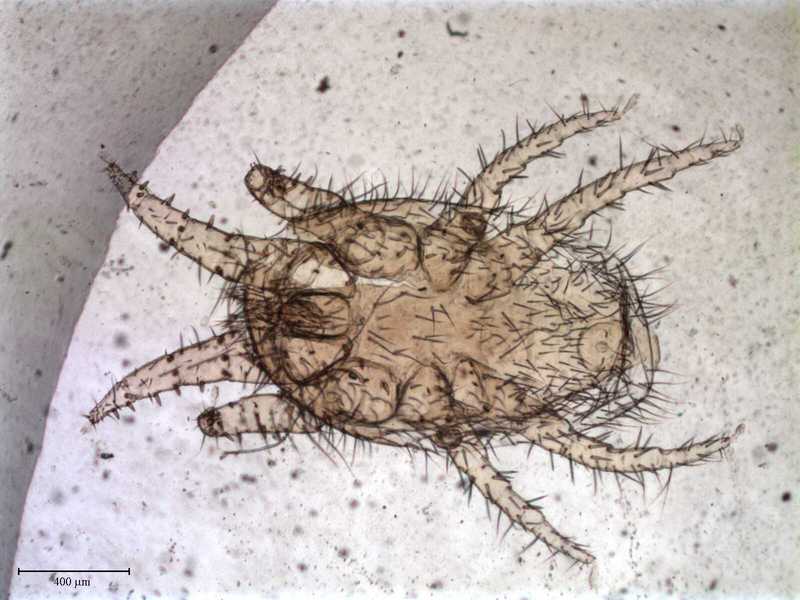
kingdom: Animalia
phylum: Arthropoda
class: Arachnida
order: Mesostigmata
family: Laelapidae
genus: Dinogamasus
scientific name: Dinogamasus
